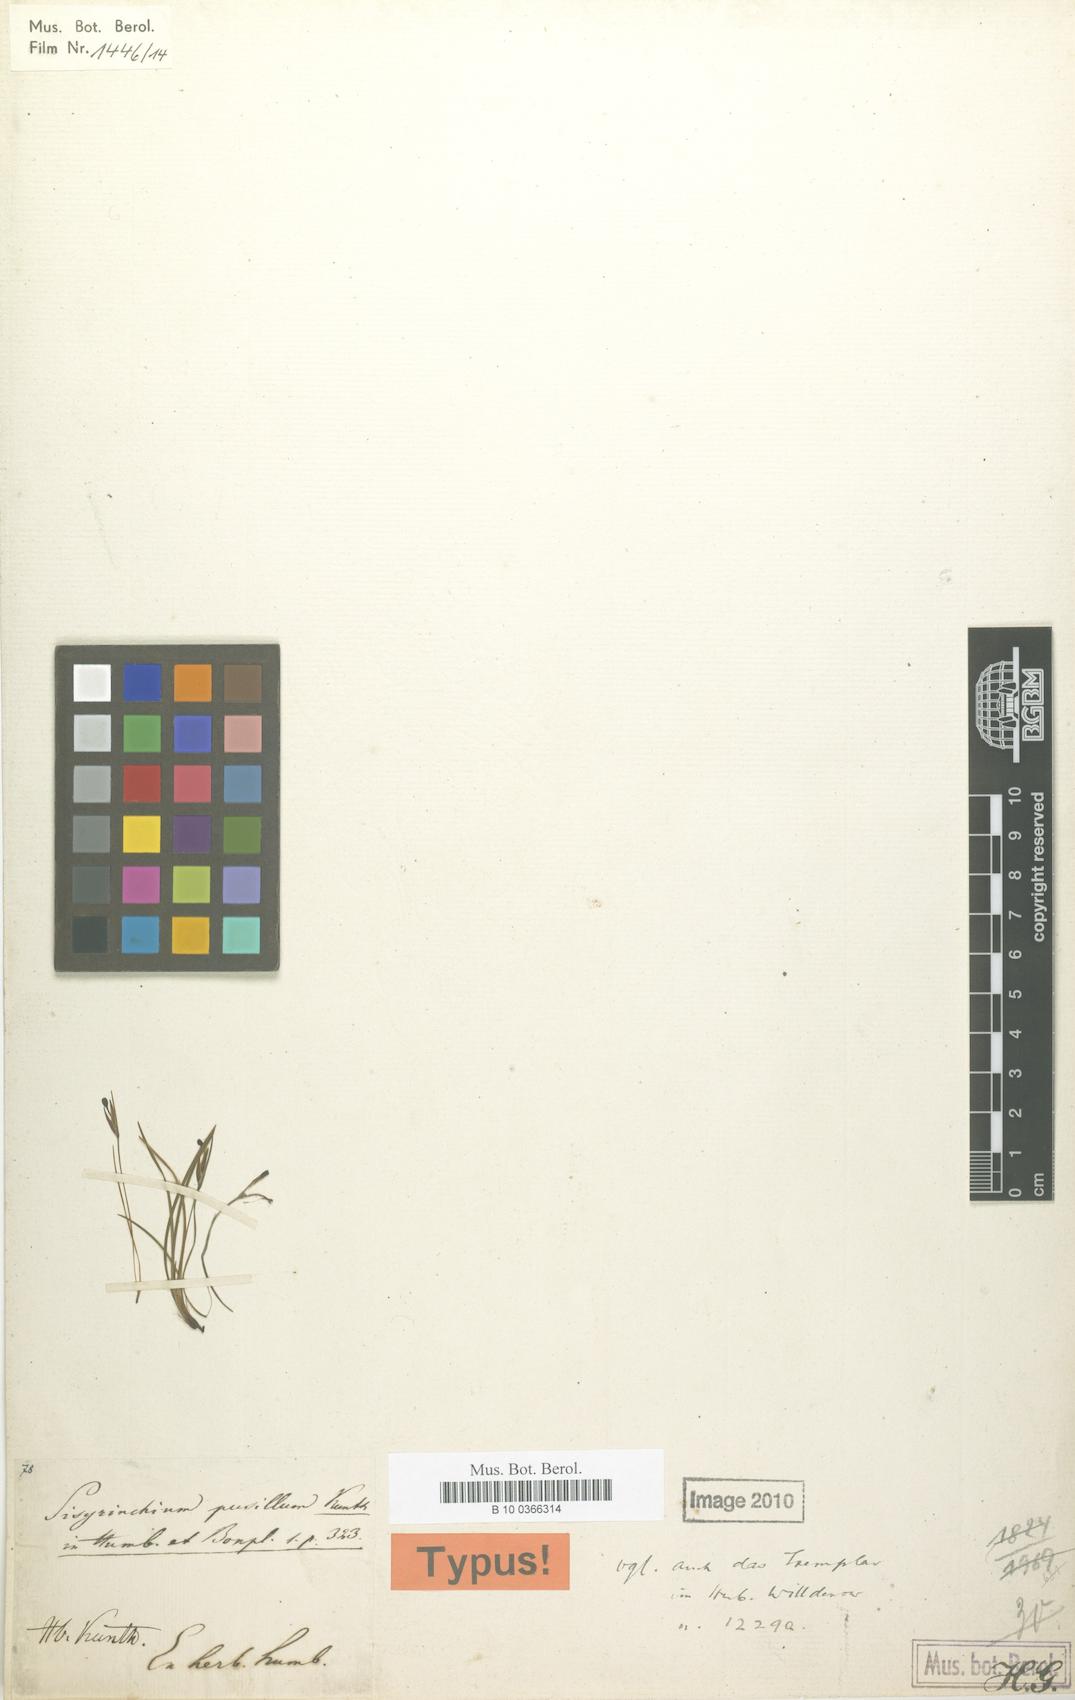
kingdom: Plantae
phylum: Tracheophyta
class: Liliopsida
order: Asparagales
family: Iridaceae
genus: Sisyrinchium
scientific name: Sisyrinchium pusillum
